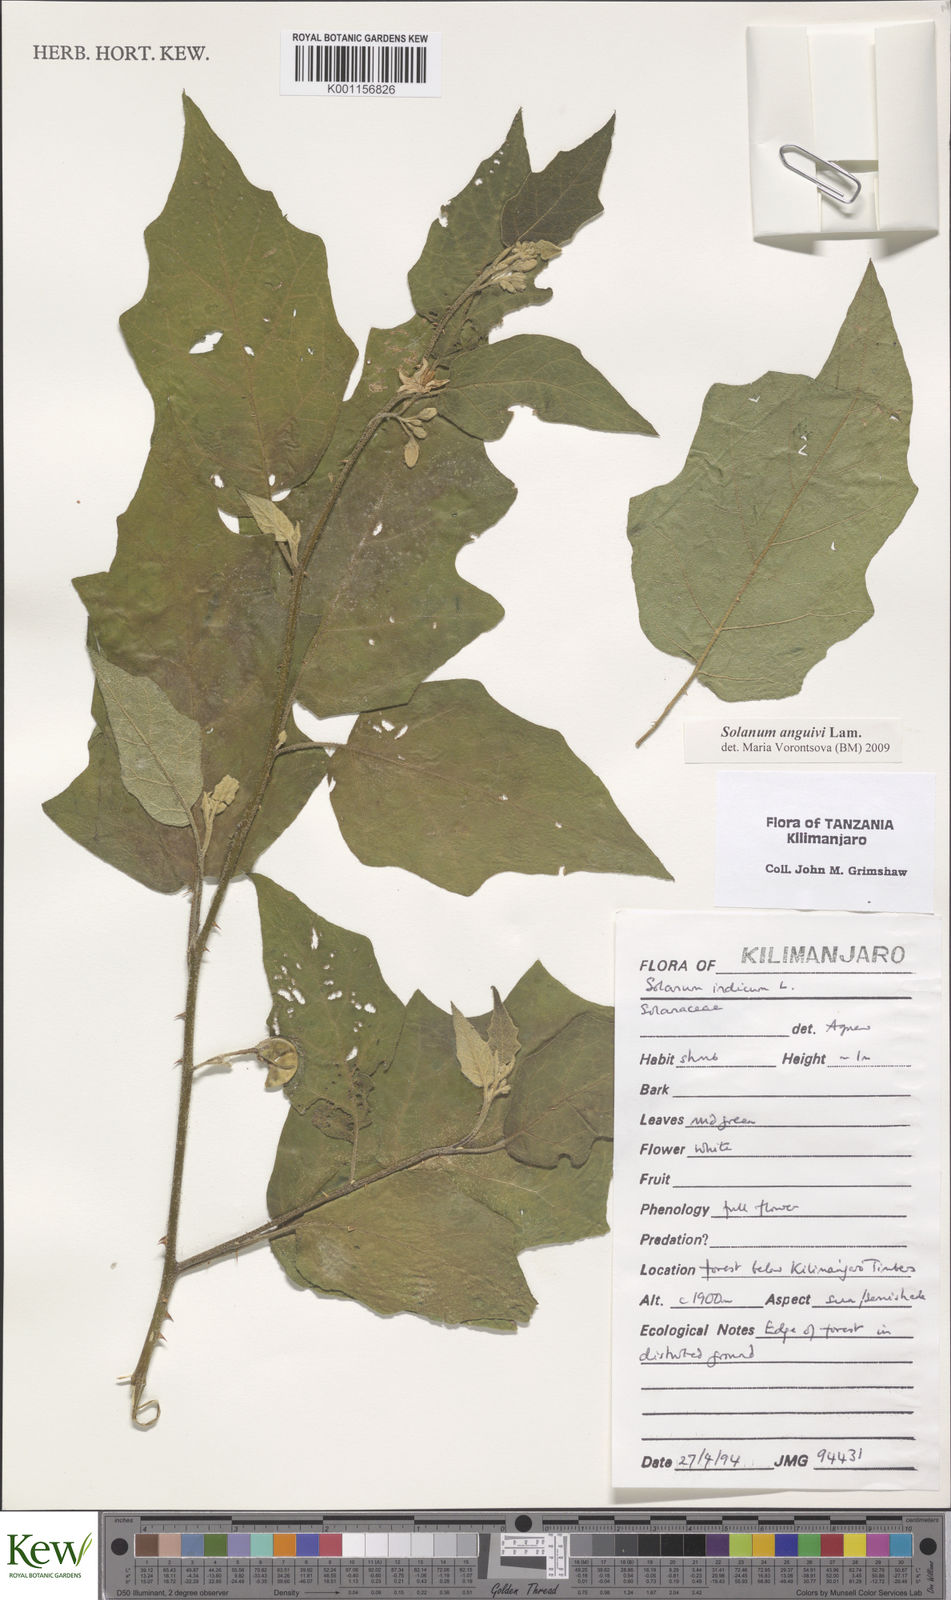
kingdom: Plantae
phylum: Tracheophyta
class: Magnoliopsida
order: Solanales
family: Solanaceae
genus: Solanum
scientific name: Solanum anguivi
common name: Forest bitterberry
